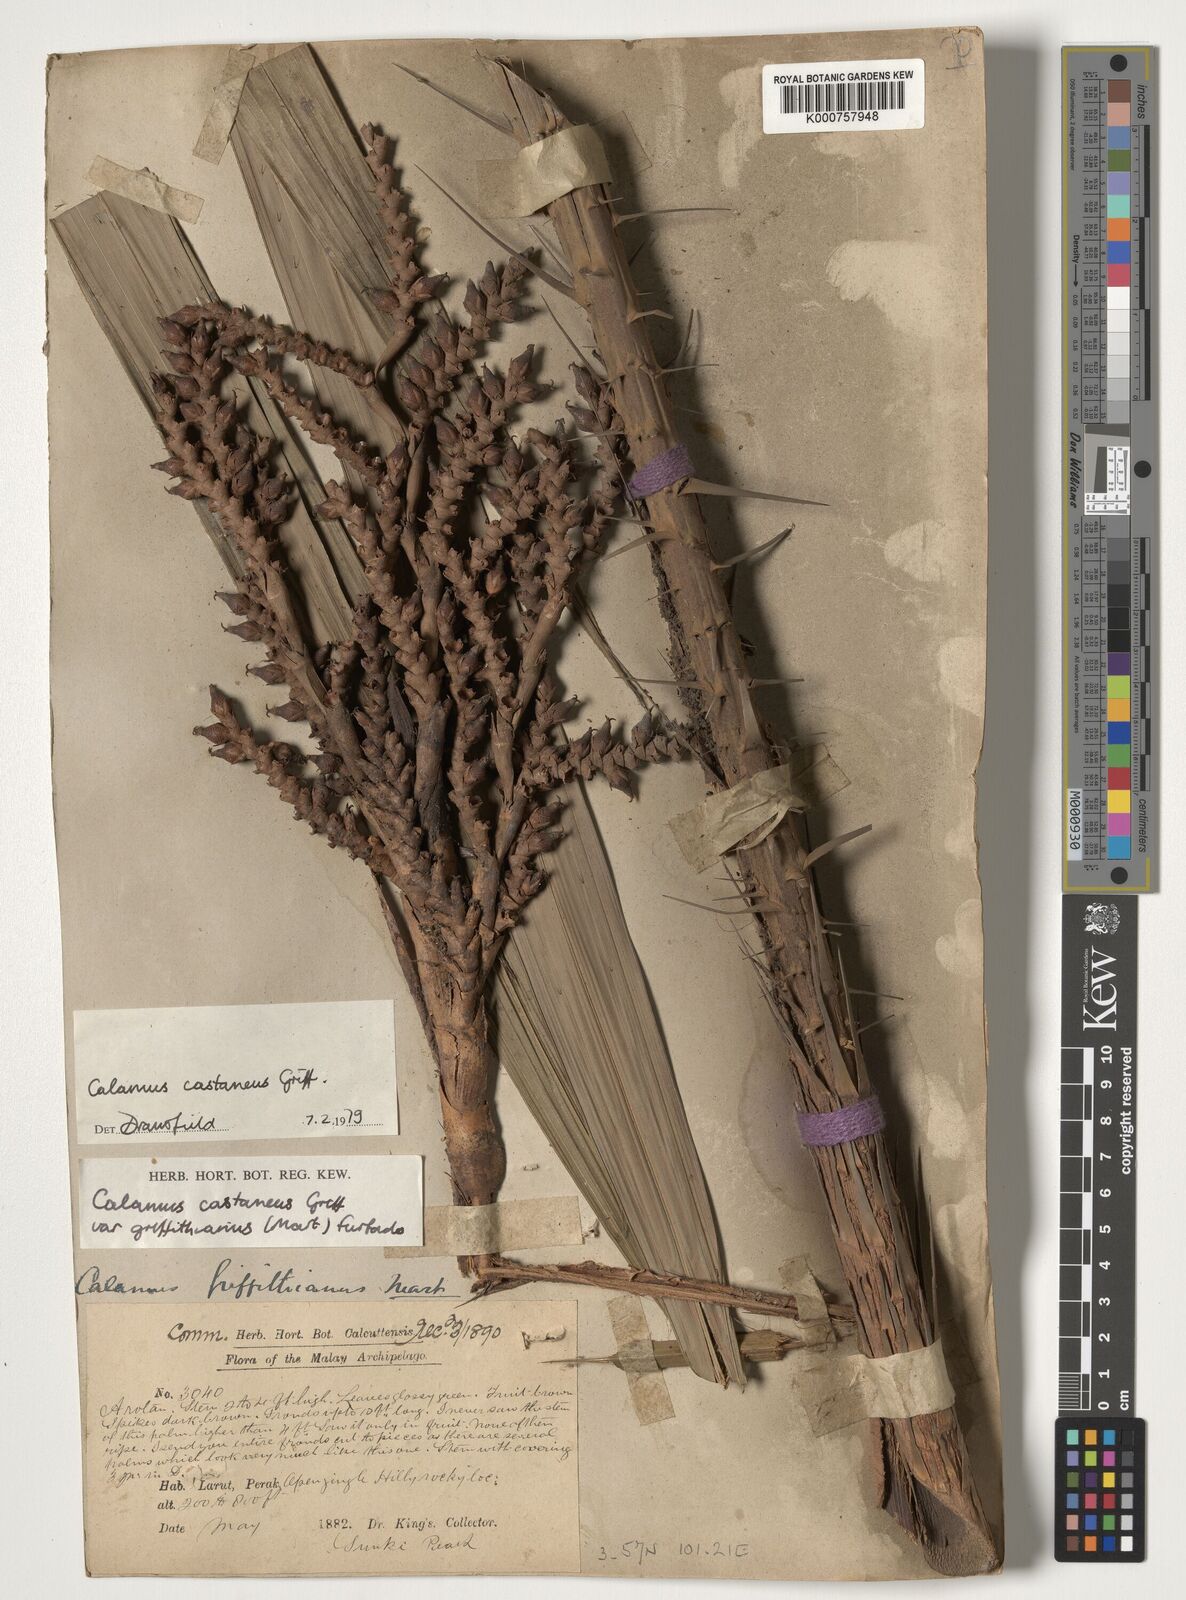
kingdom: Plantae
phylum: Tracheophyta
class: Liliopsida
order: Arecales
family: Arecaceae
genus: Calamus
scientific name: Calamus castaneus
